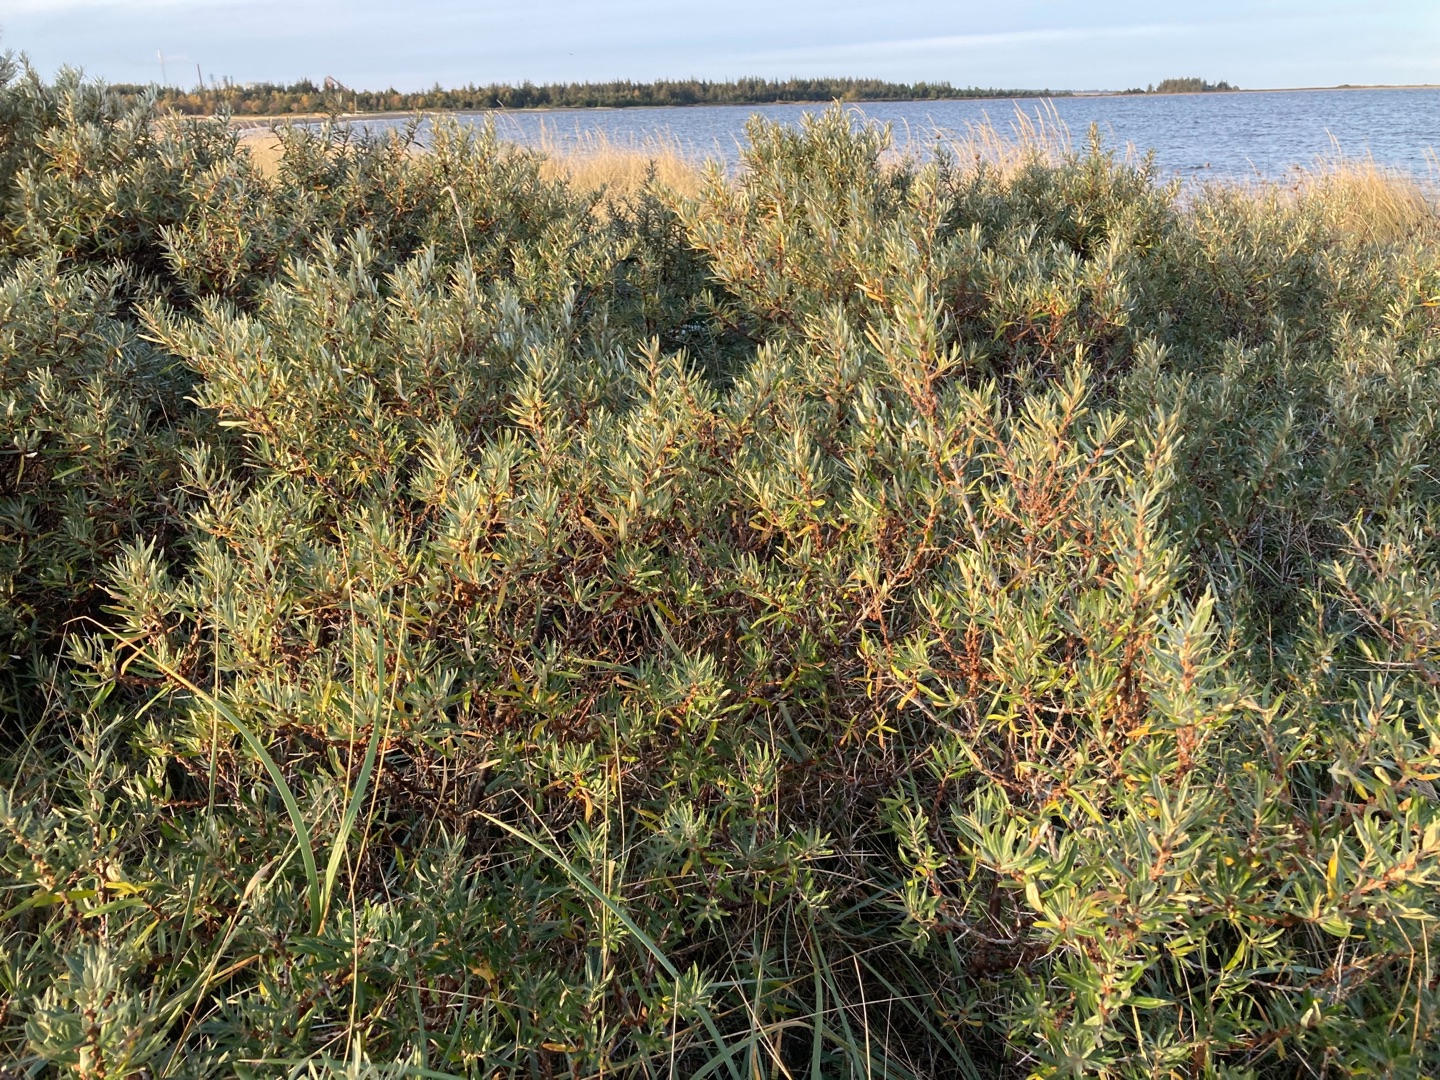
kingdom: Plantae
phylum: Tracheophyta
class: Magnoliopsida
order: Rosales
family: Elaeagnaceae
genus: Hippophae
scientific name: Hippophae rhamnoides
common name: Havtorn
